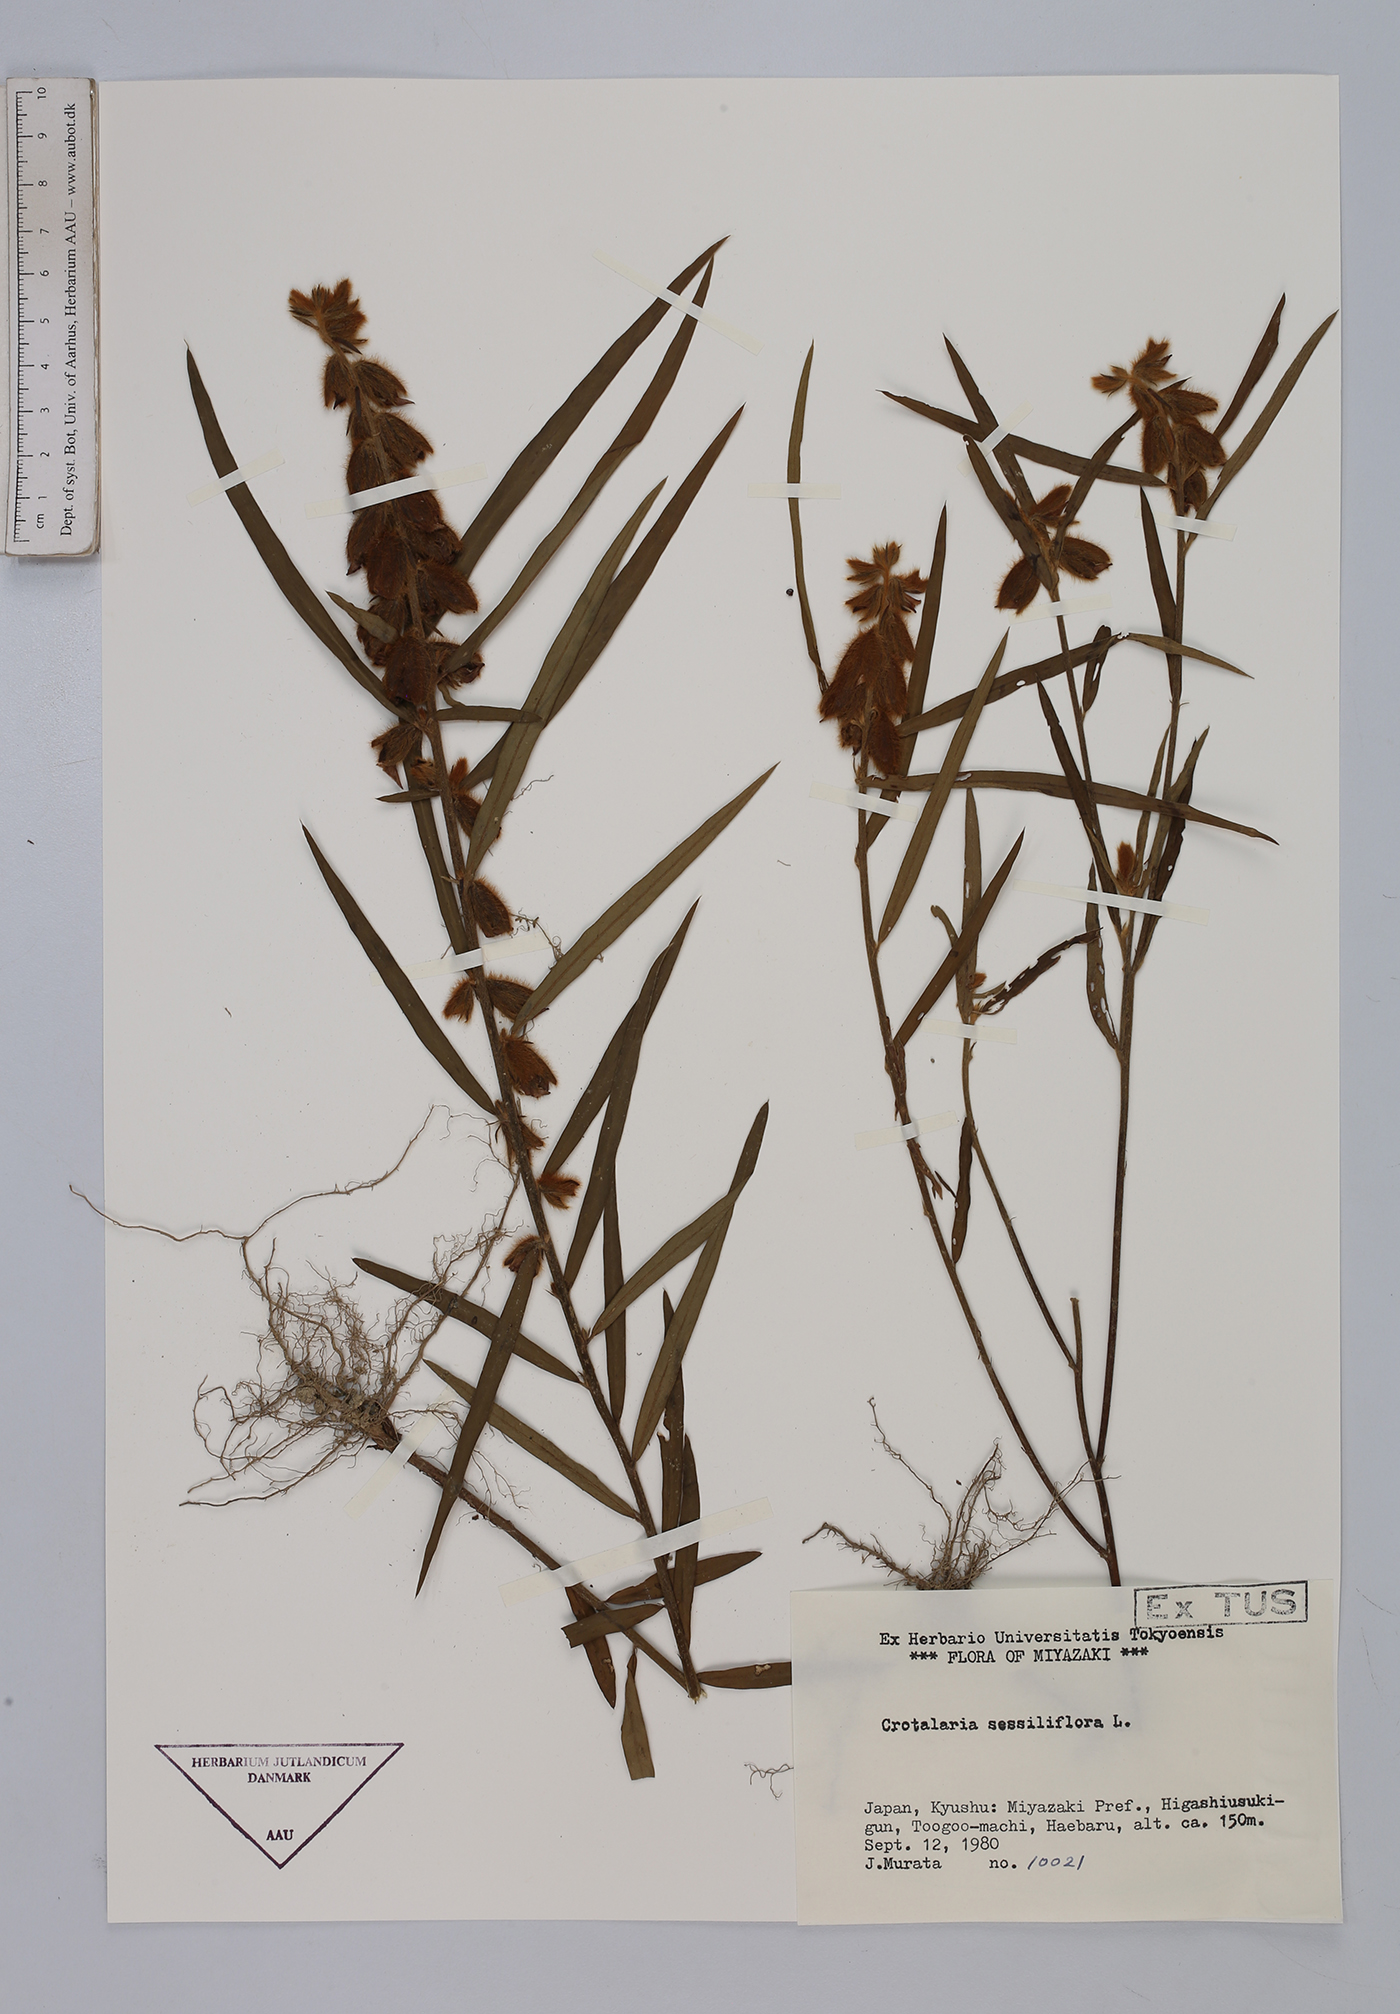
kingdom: Plantae
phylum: Tracheophyta
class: Magnoliopsida
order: Fabales
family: Fabaceae
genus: Crotalaria
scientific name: Crotalaria sessiliflora
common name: Rattlebox
